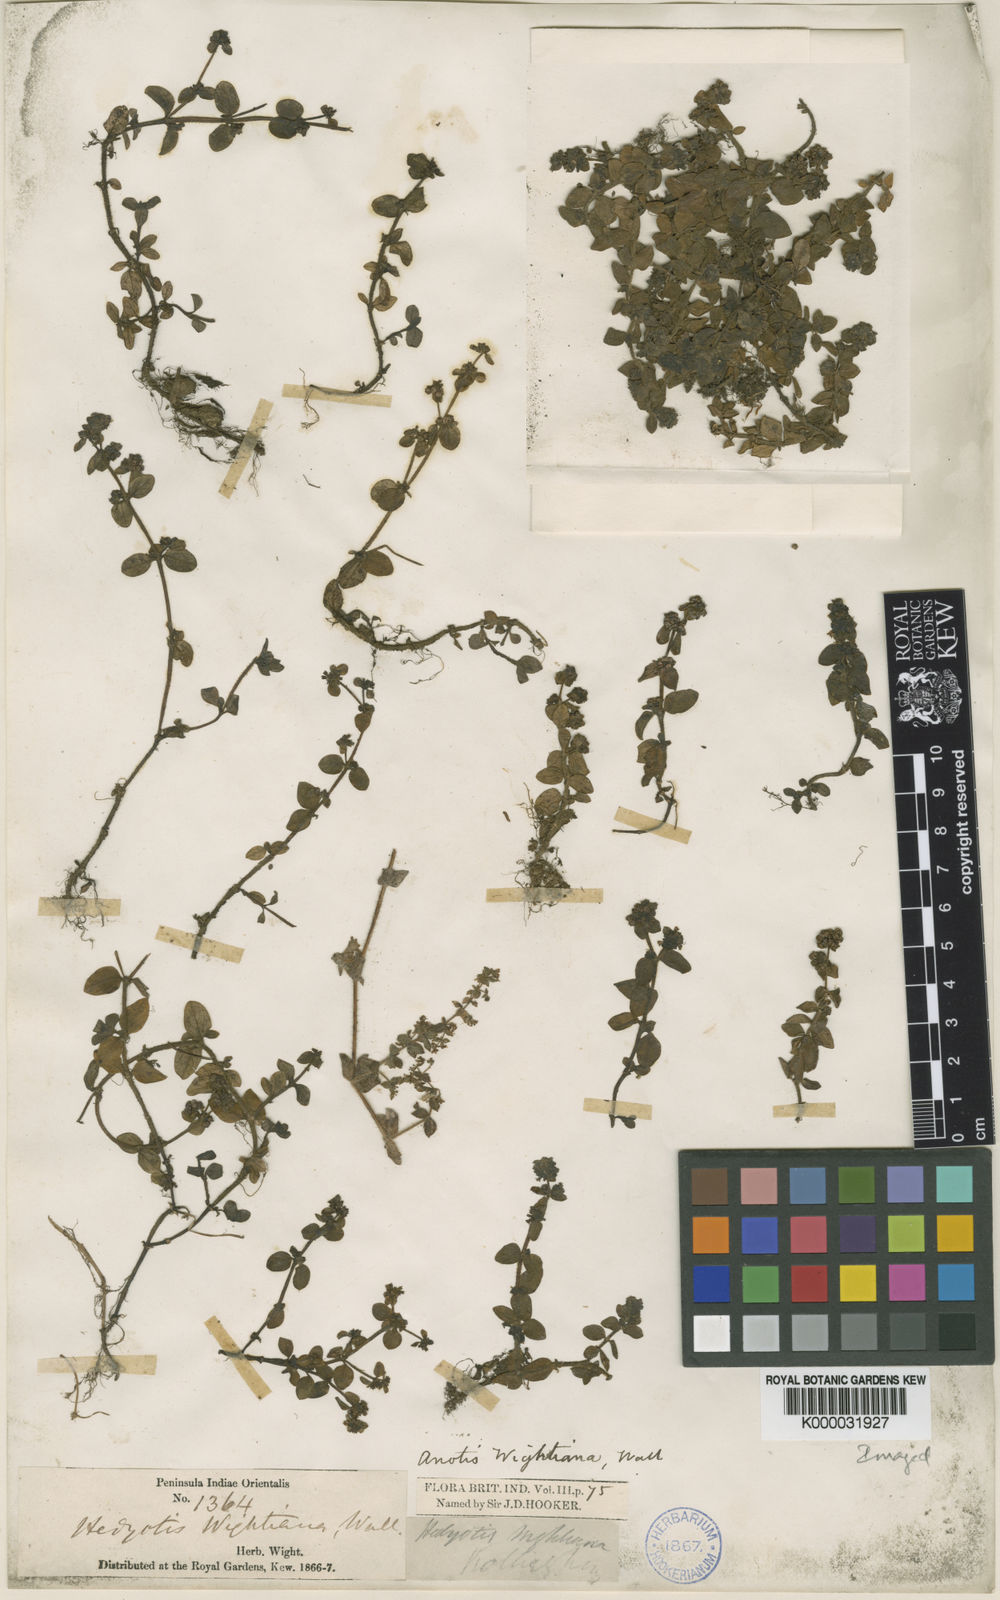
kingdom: Plantae
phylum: Tracheophyta
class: Magnoliopsida
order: Gentianales
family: Rubiaceae
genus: Neanotis
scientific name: Neanotis wightiana
